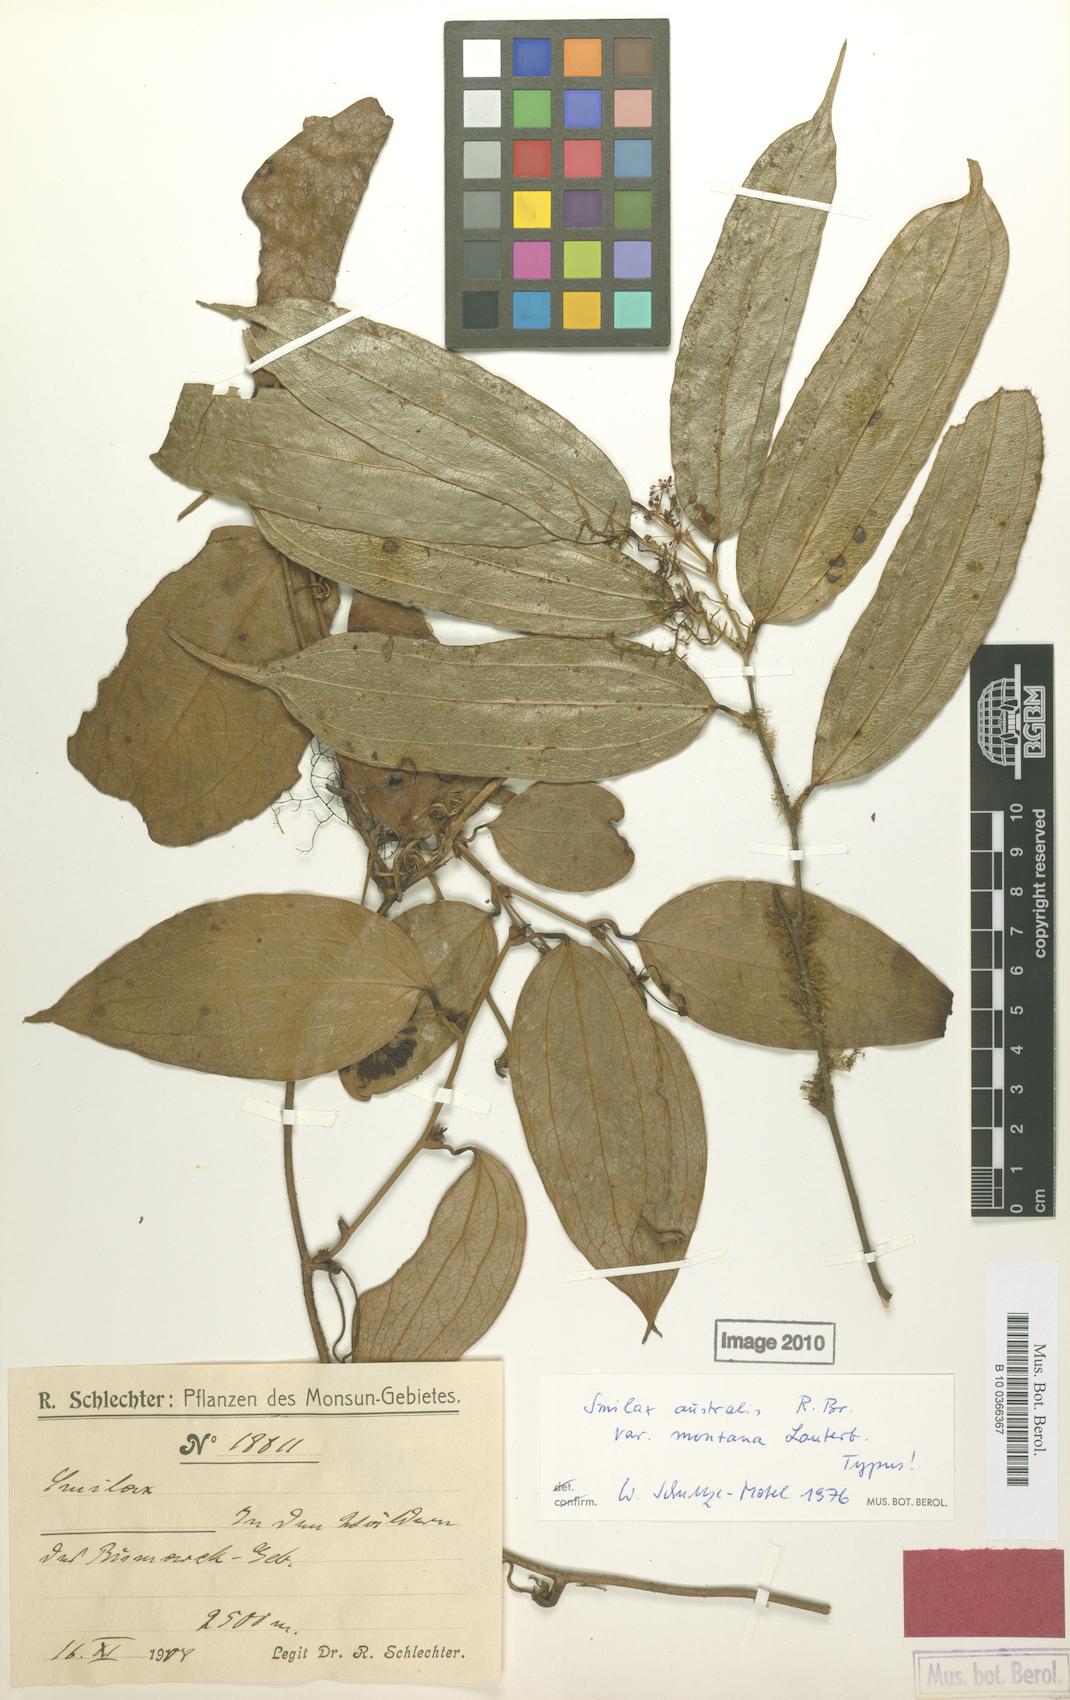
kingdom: Plantae
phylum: Tracheophyta
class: Liliopsida
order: Liliales
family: Smilacaceae
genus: Smilax
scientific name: Smilax australis
